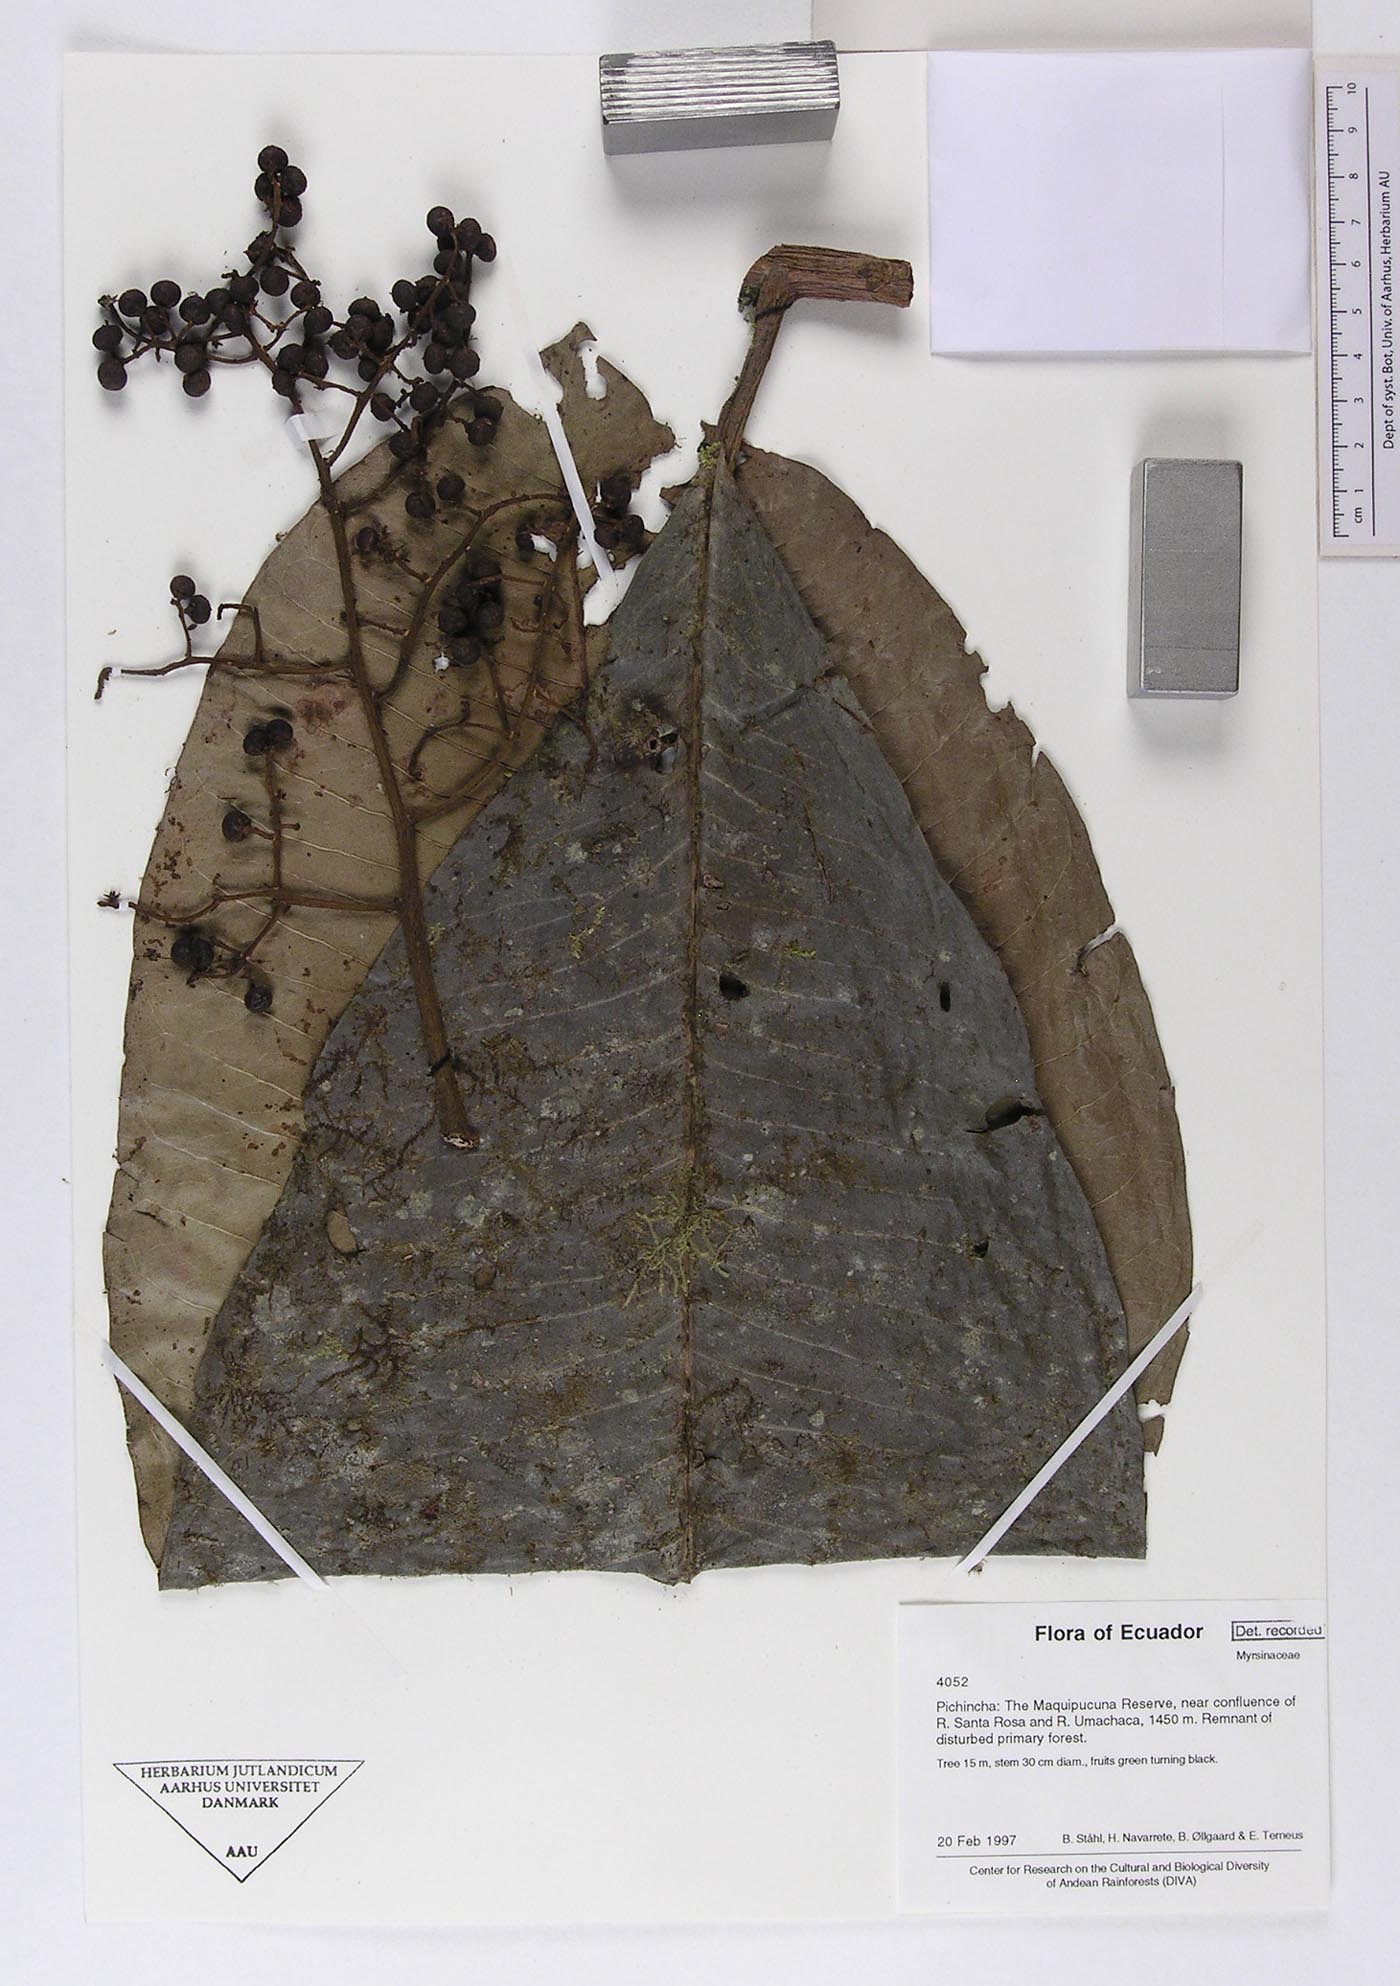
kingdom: Plantae
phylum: Tracheophyta
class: Magnoliopsida
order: Ericales
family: Primulaceae
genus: Cybianthus
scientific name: Cybianthus simplex
